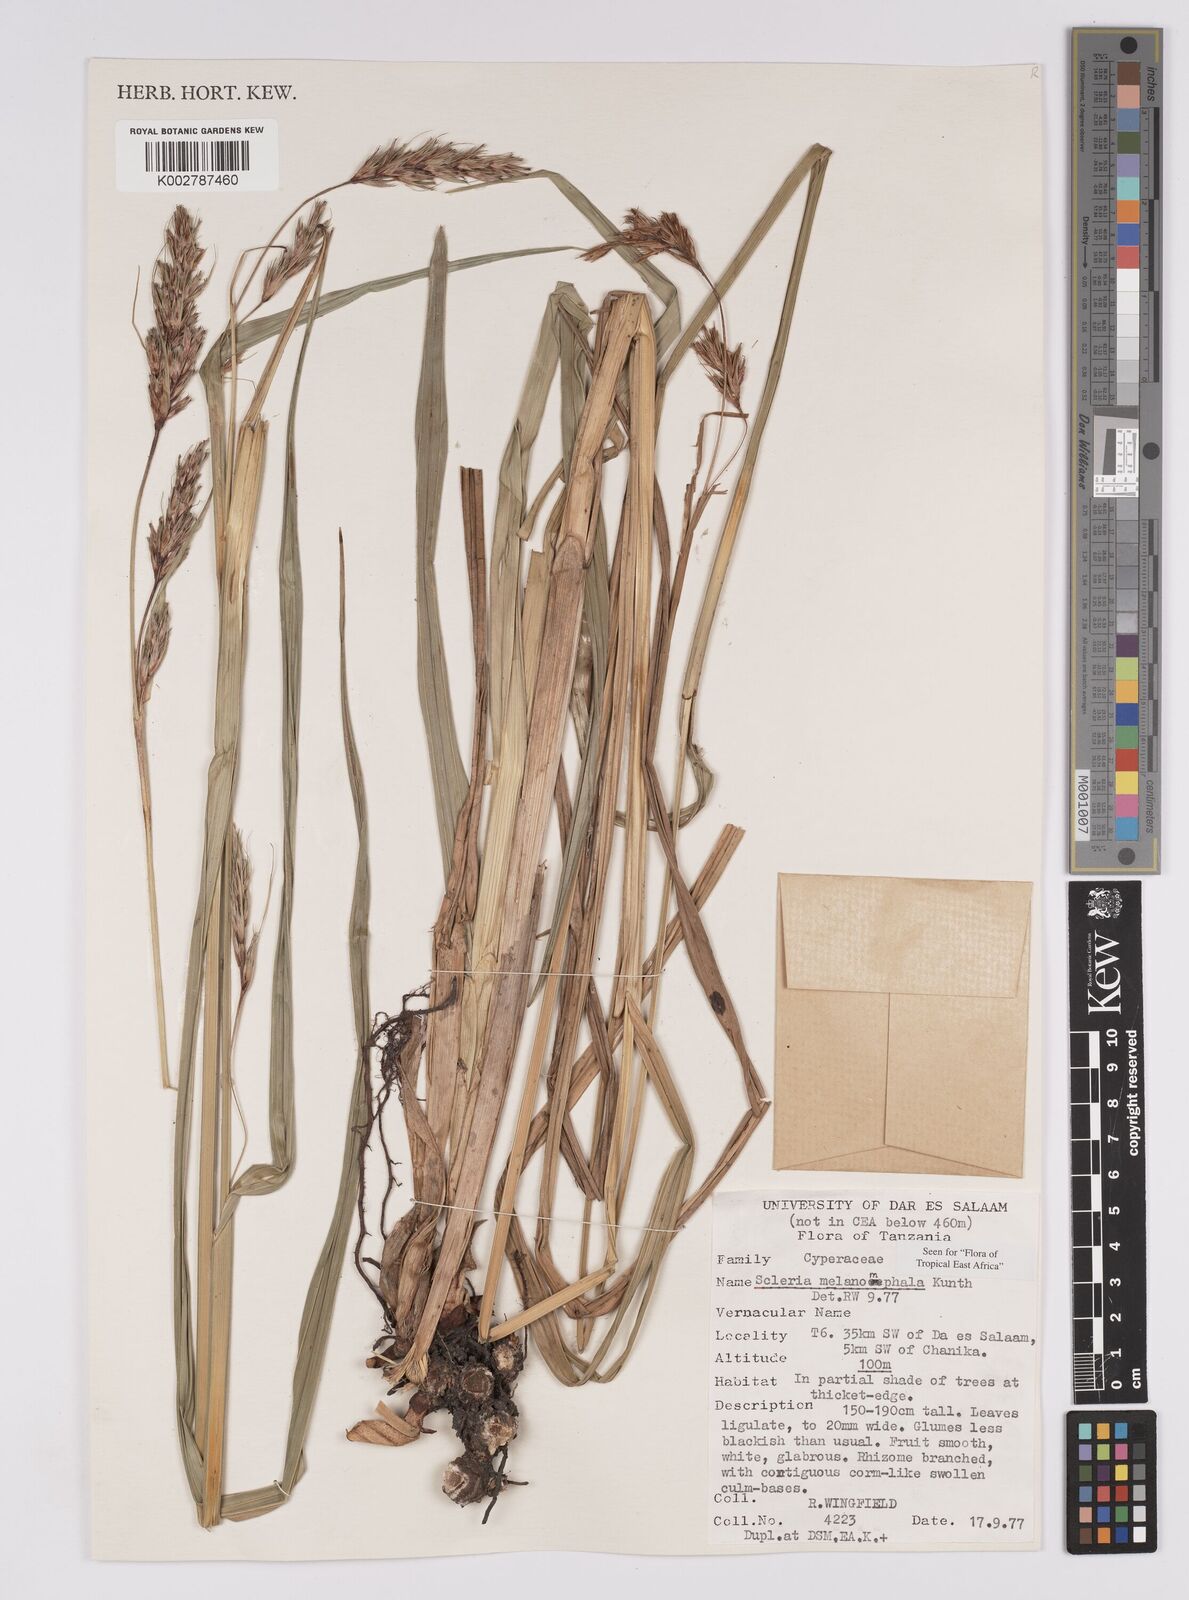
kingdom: Plantae
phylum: Tracheophyta
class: Liliopsida
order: Poales
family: Cyperaceae
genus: Scleria
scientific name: Scleria melanomphala
